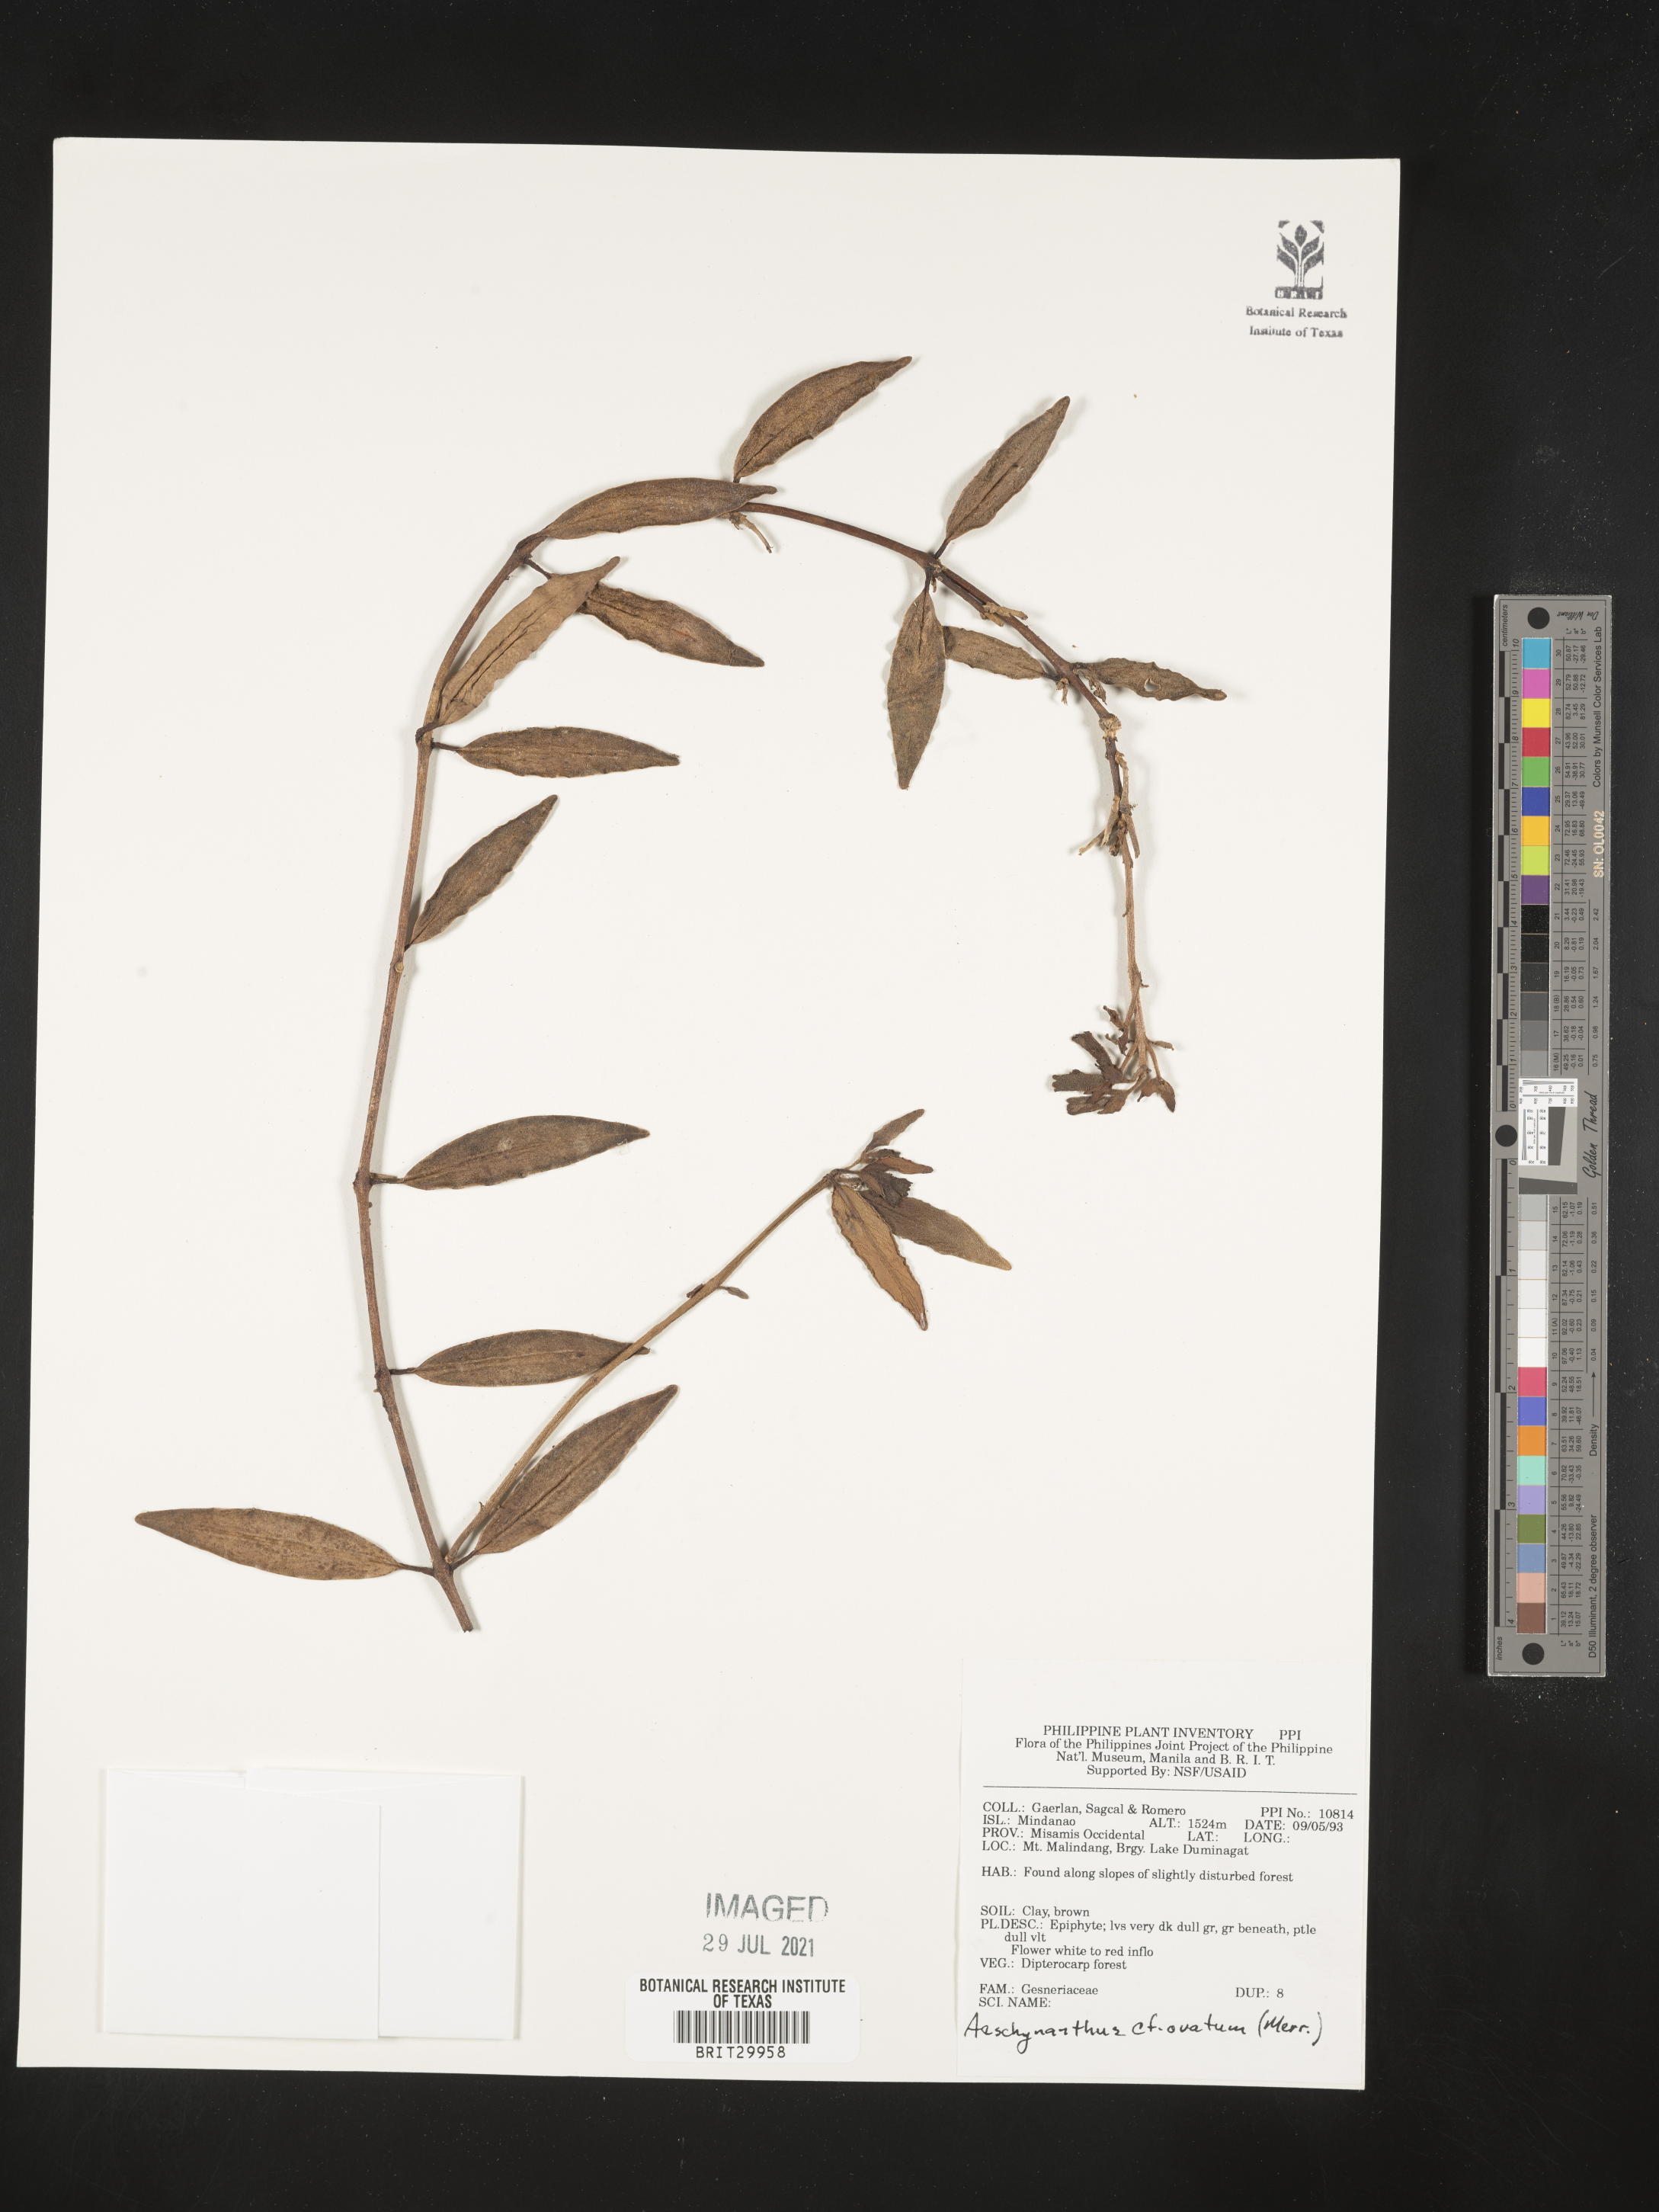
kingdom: Plantae
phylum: Tracheophyta
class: Magnoliopsida
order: Lamiales
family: Gesneriaceae
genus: Aeschynanthus
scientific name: Aeschynanthus ovatus
